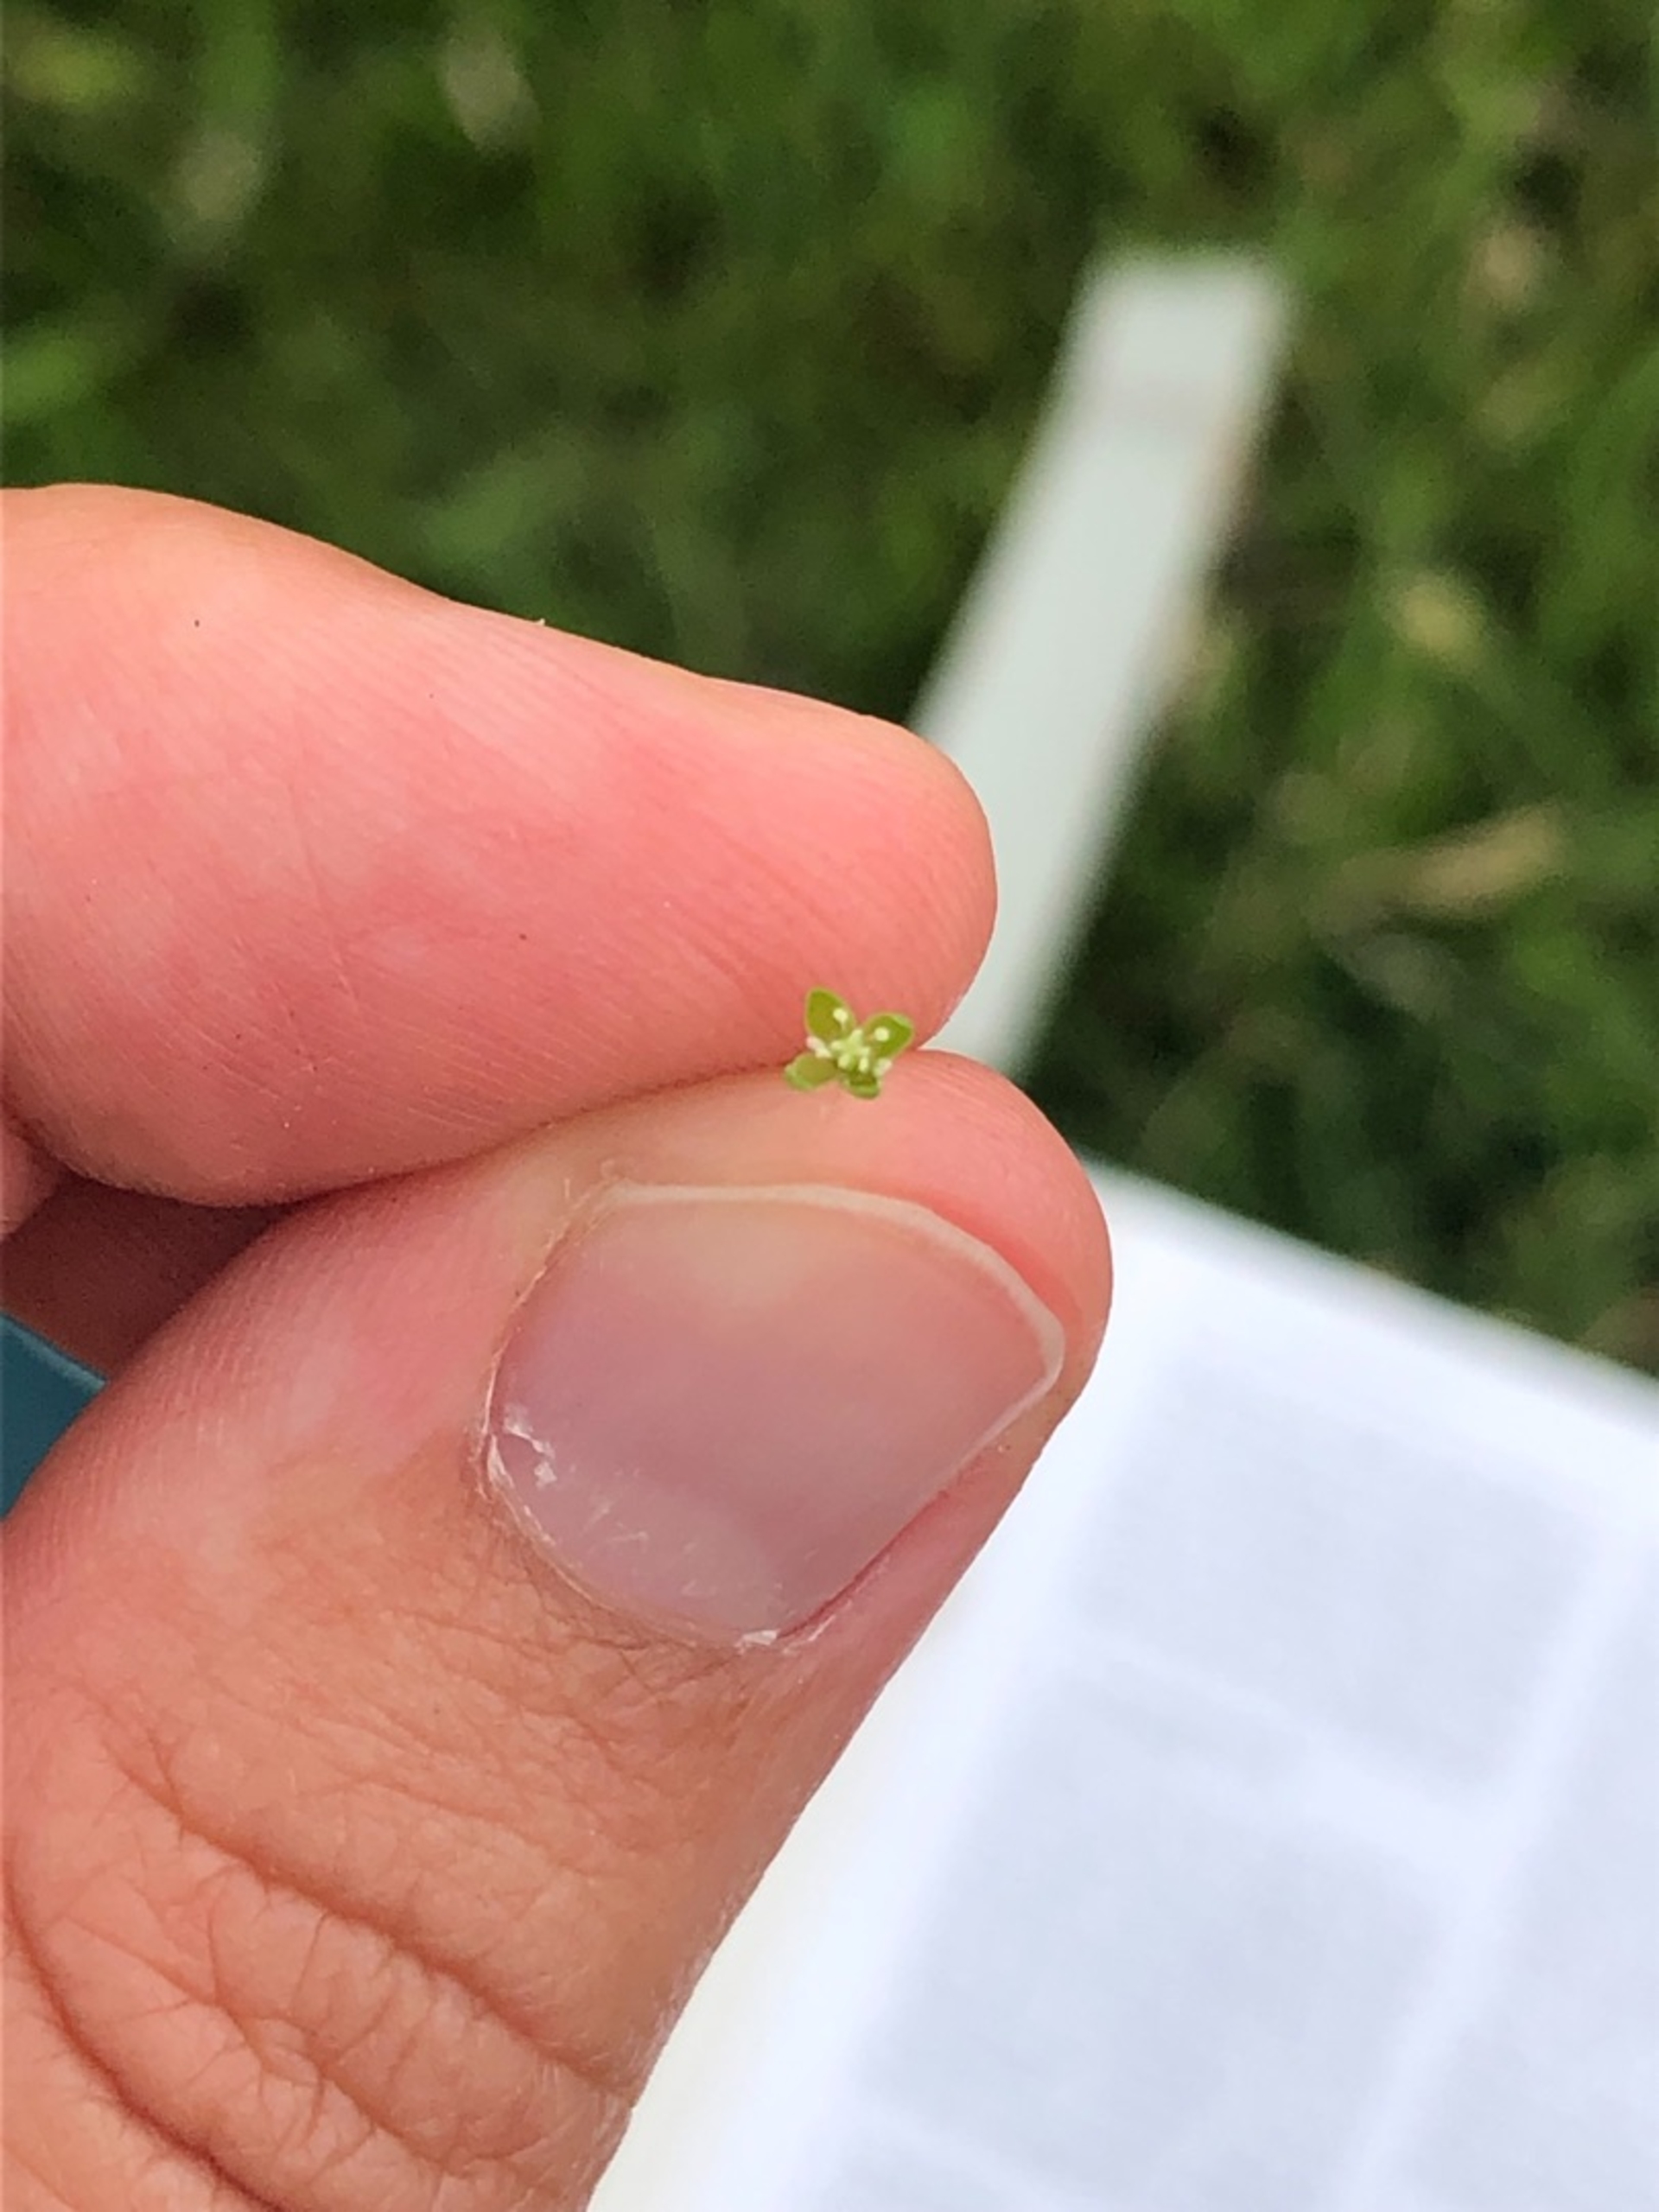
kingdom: Plantae
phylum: Tracheophyta
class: Magnoliopsida
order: Caryophyllales
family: Caryophyllaceae
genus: Sagina
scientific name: Sagina procumbens
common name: Almindelig firling
